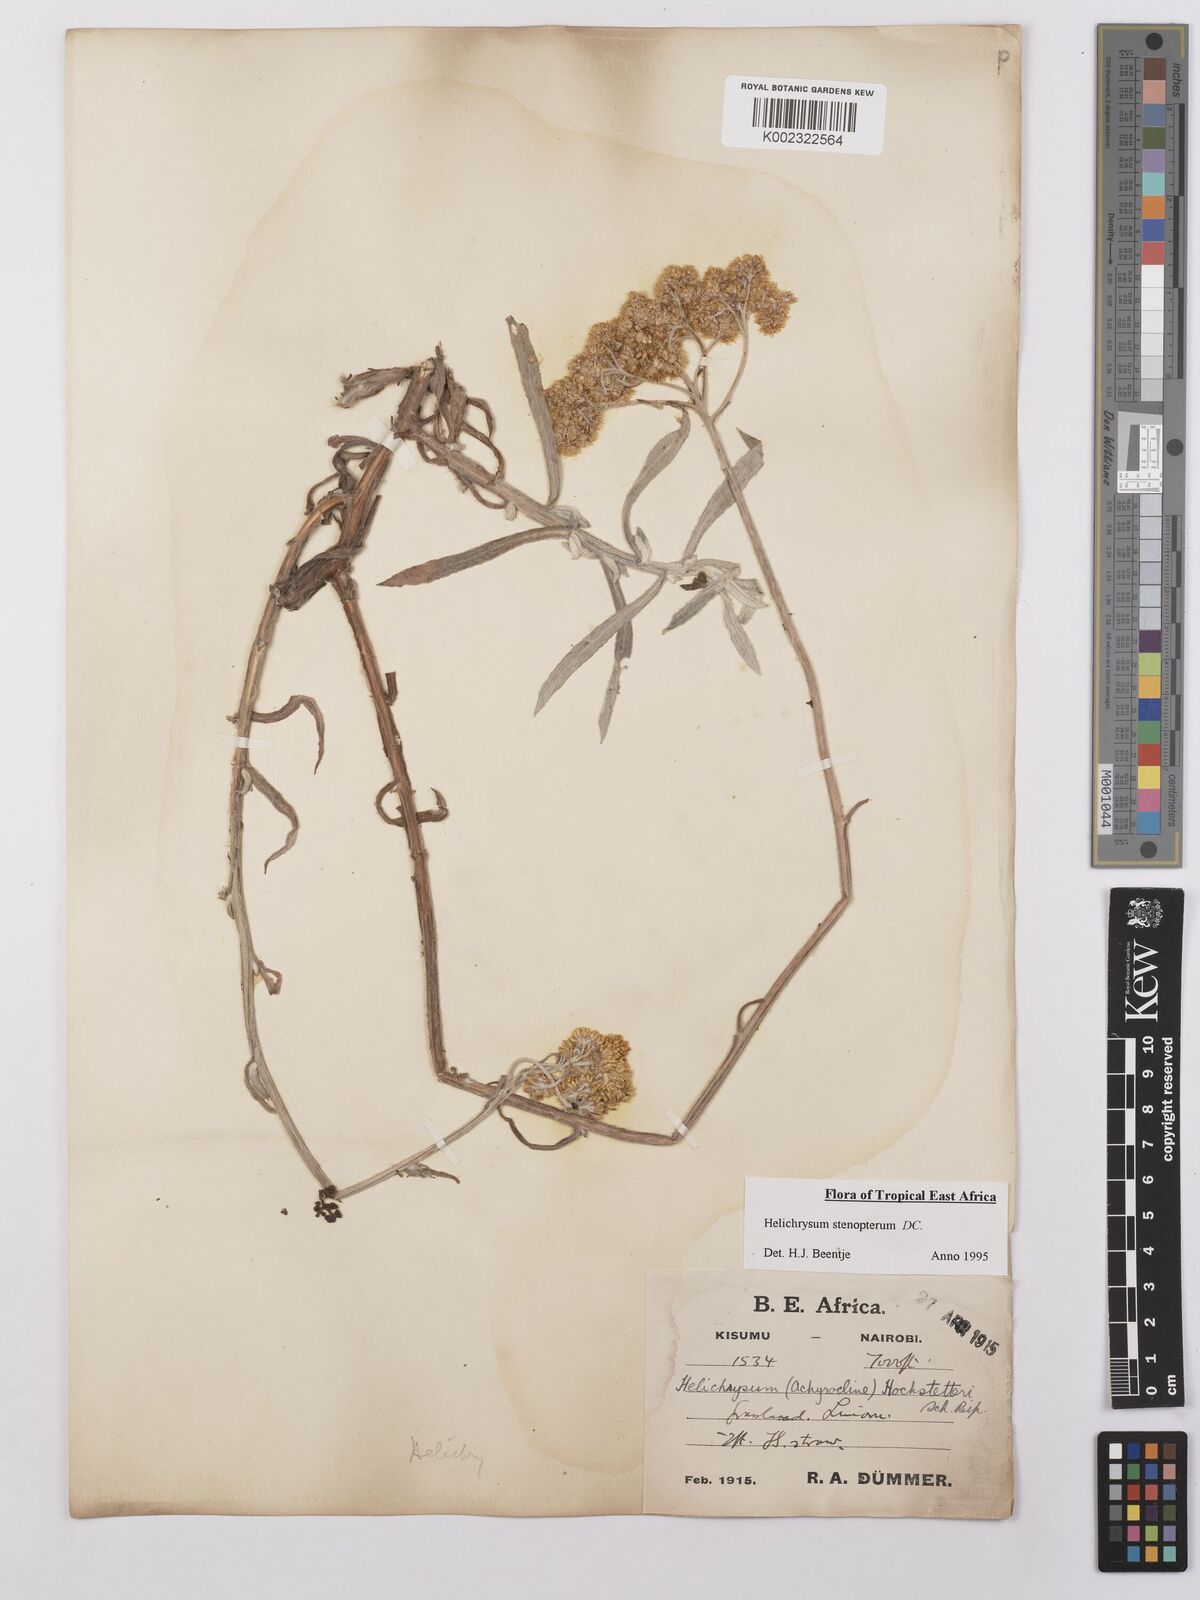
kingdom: Plantae
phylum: Tracheophyta
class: Magnoliopsida
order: Asterales
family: Asteraceae
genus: Helichrysum
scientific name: Helichrysum stenopterum
